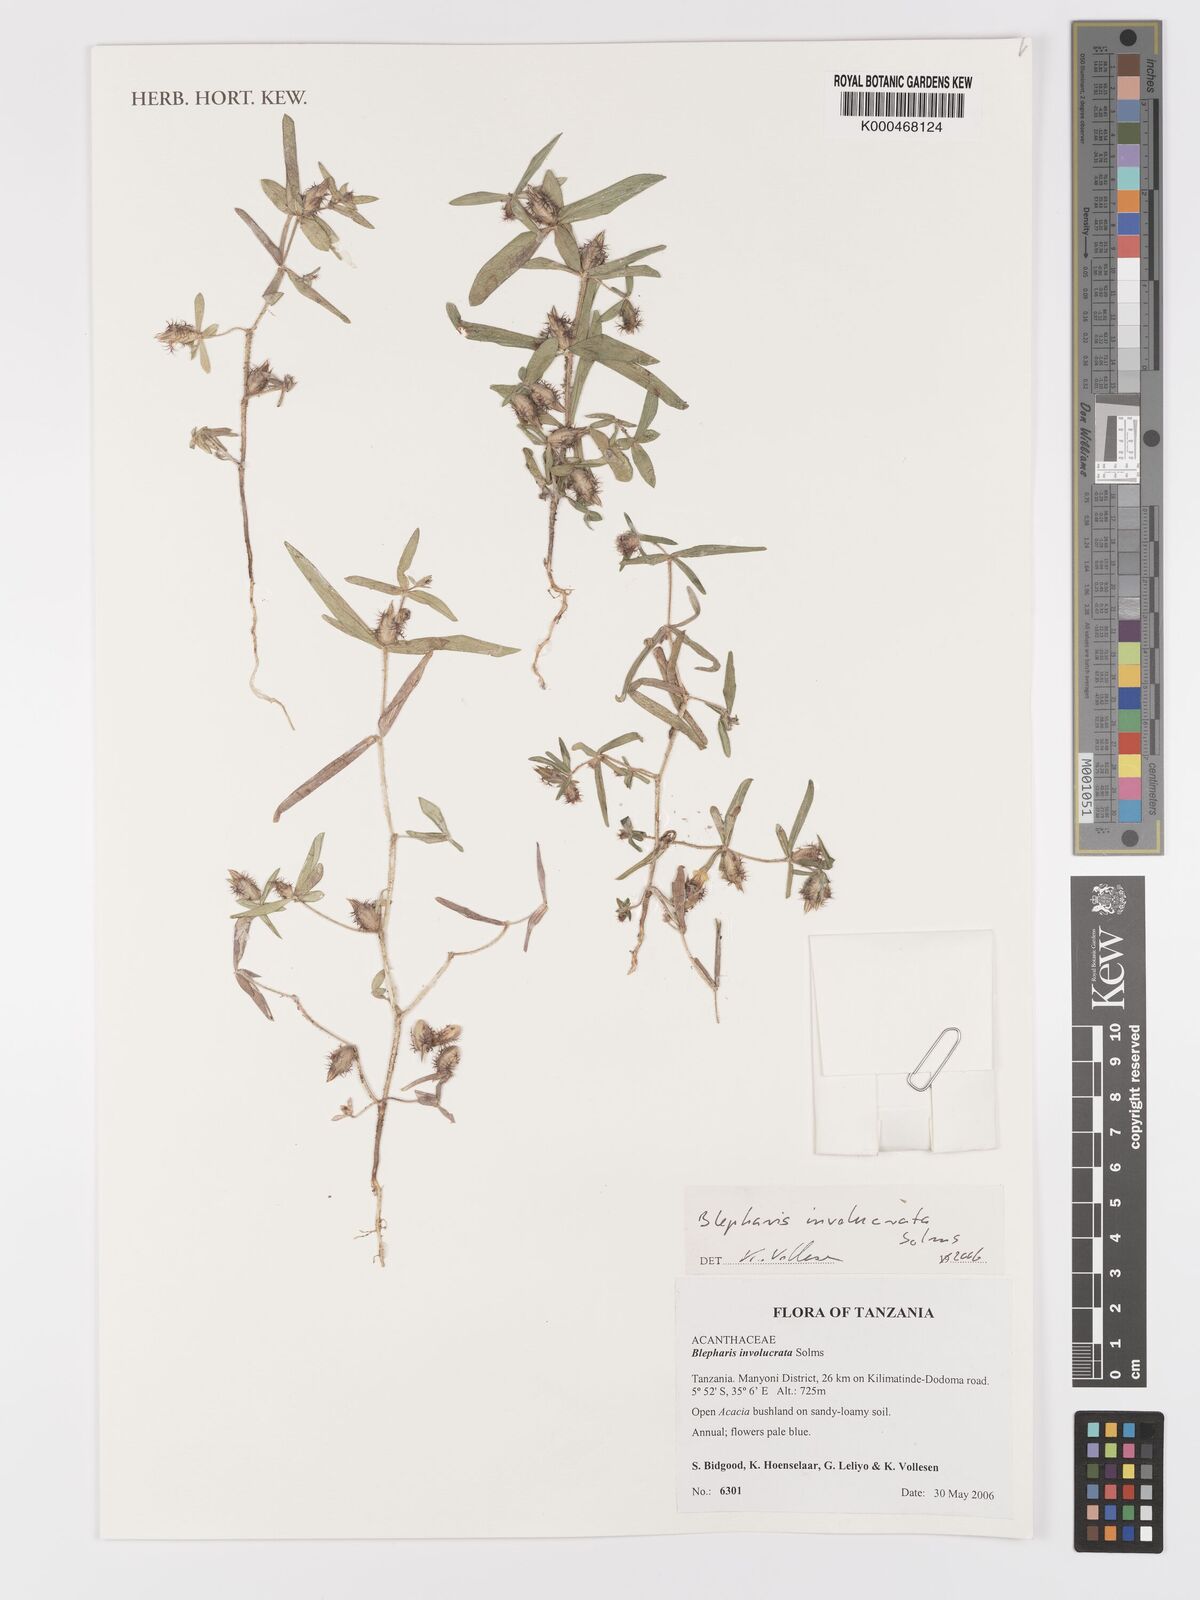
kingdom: Plantae
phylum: Tracheophyta
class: Magnoliopsida
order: Lamiales
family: Acanthaceae
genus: Blepharis
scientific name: Blepharis
